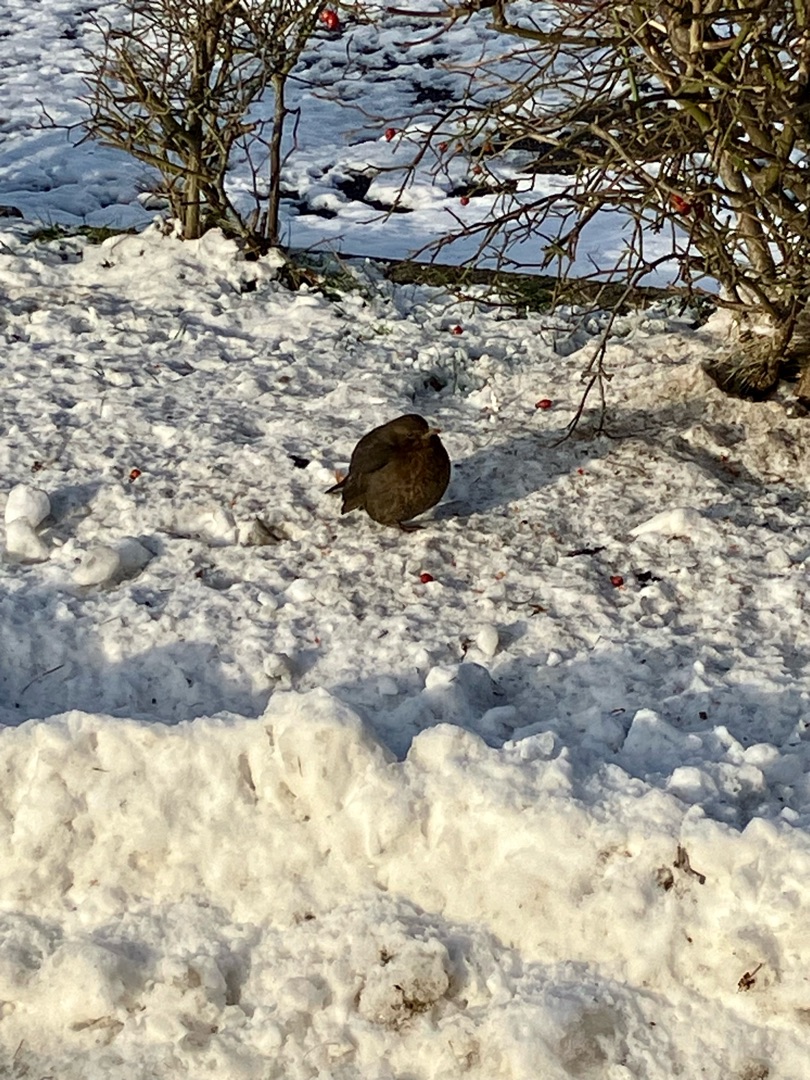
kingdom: Animalia
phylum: Chordata
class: Aves
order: Passeriformes
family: Turdidae
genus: Turdus
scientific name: Turdus merula
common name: Solsort
